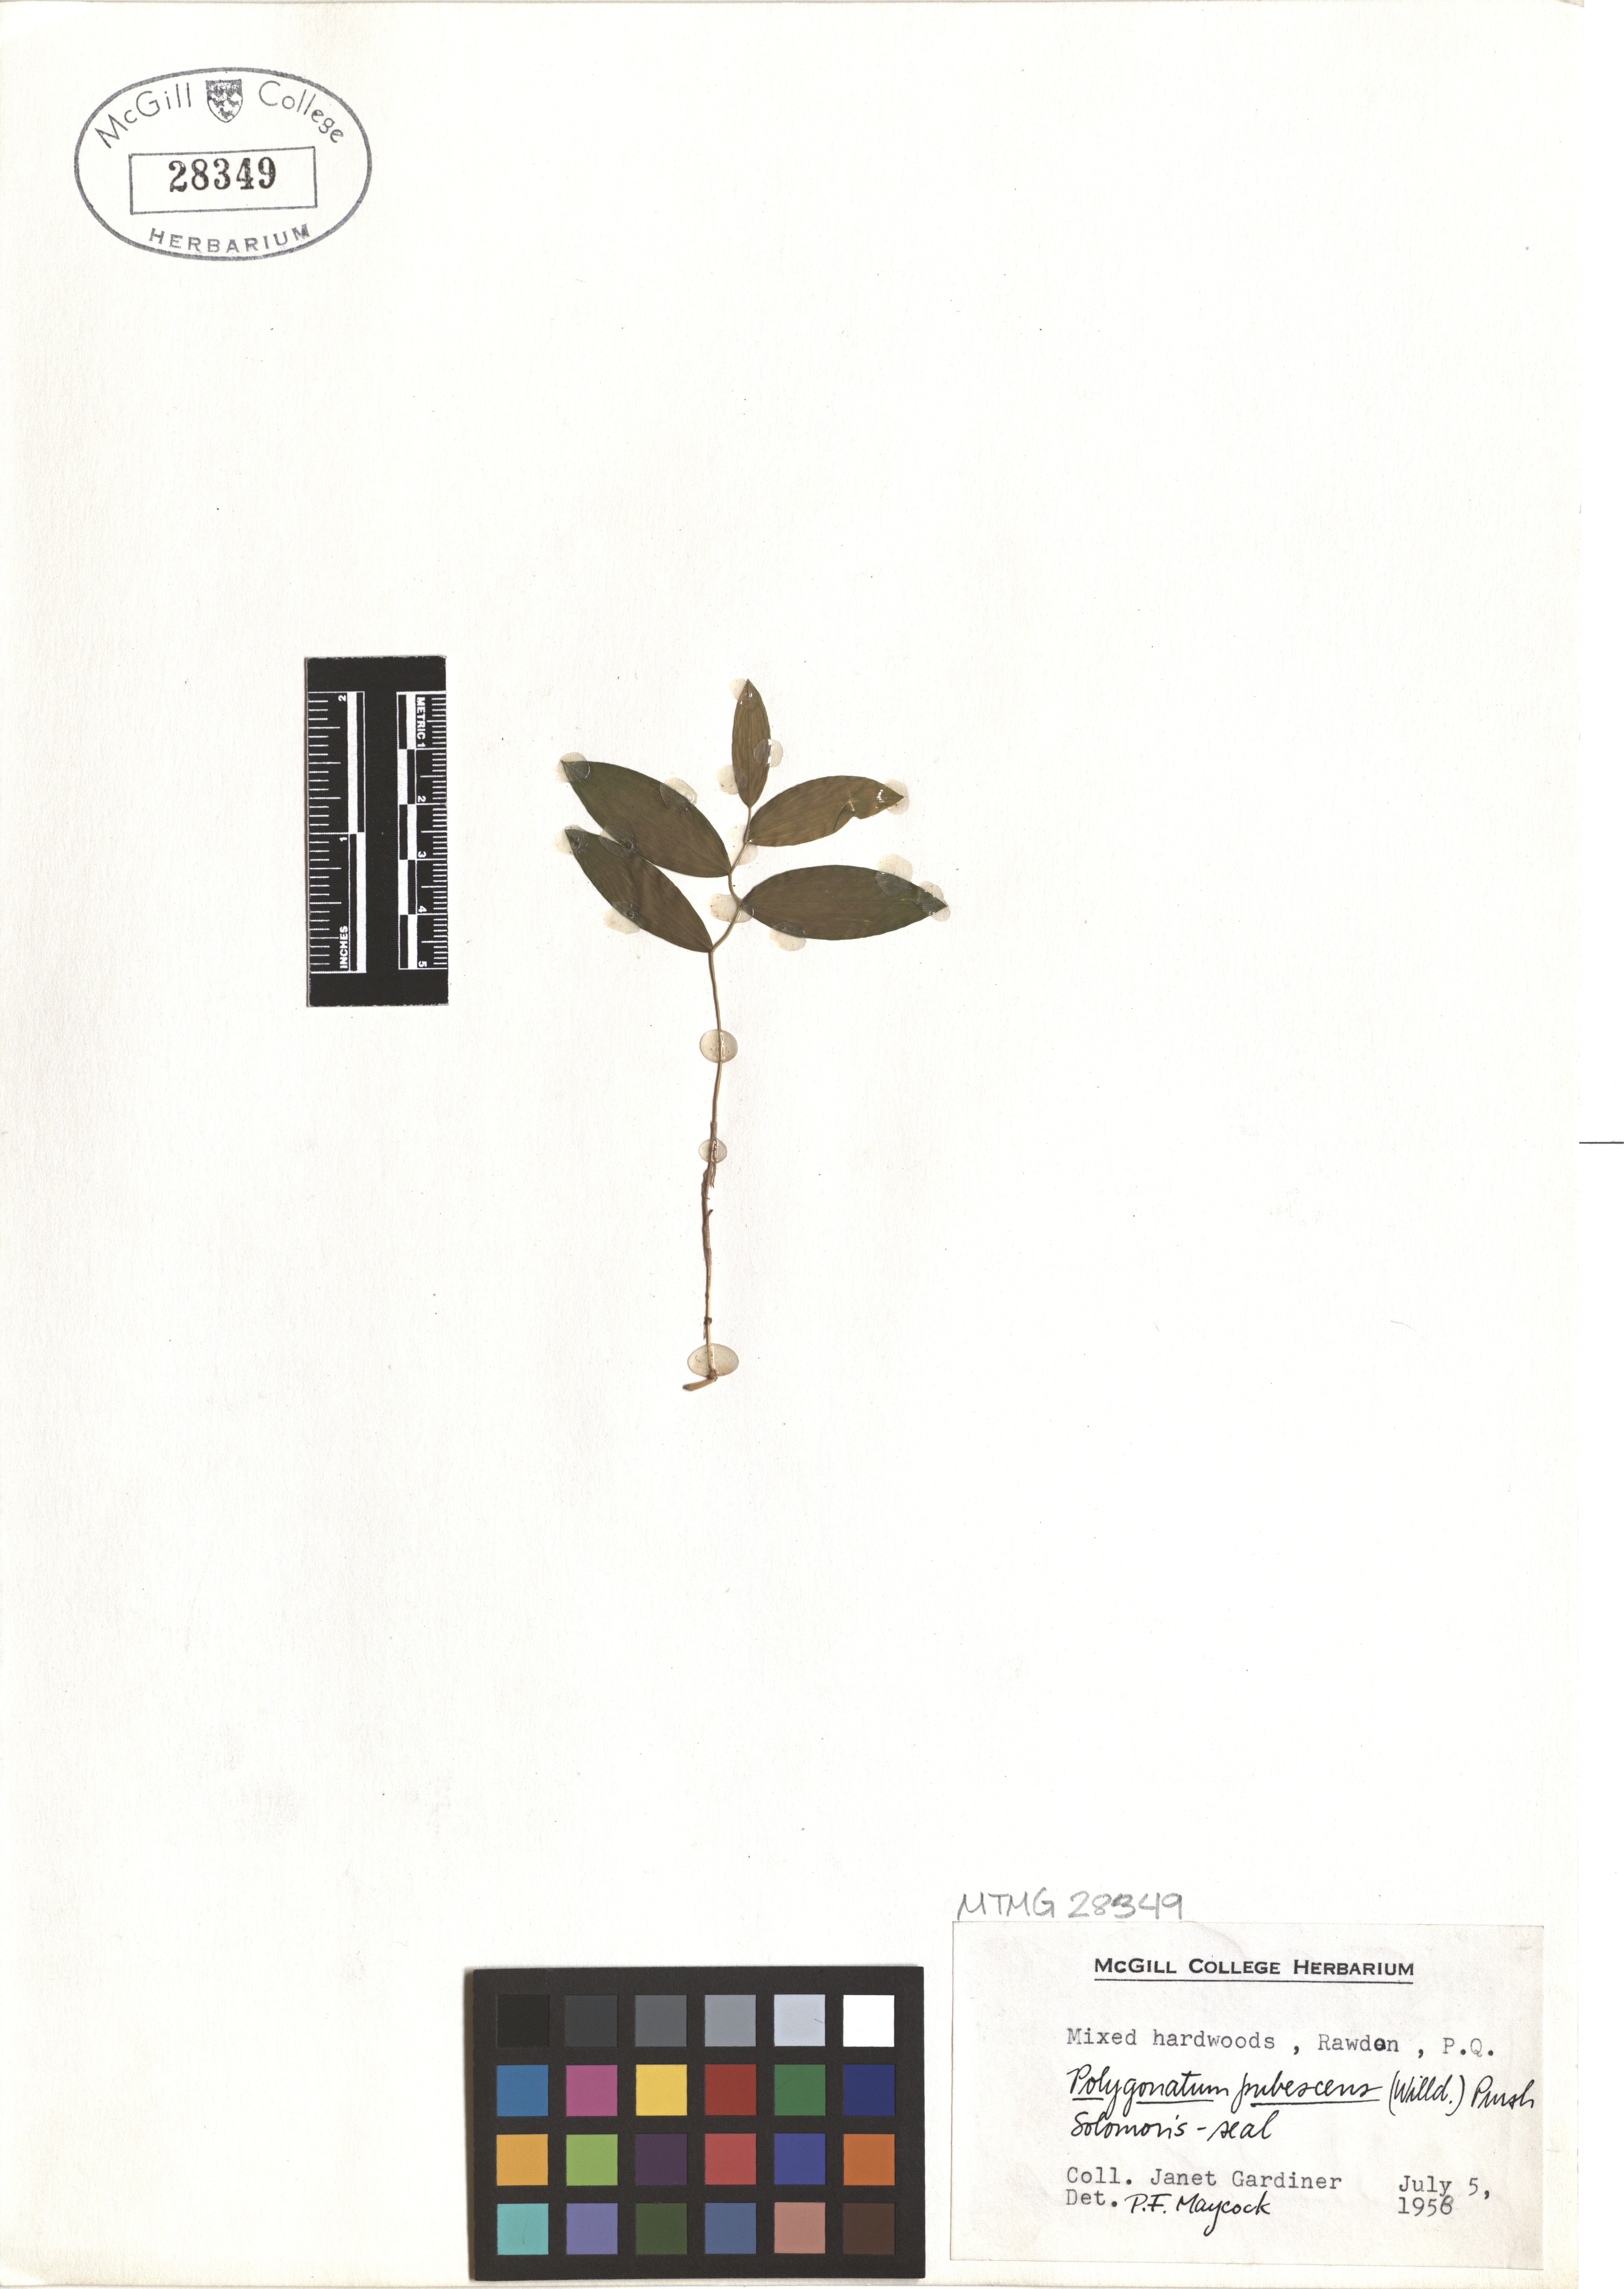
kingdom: Plantae
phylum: Tracheophyta
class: Liliopsida
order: Asparagales
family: Asparagaceae
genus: Polygonatum
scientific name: Polygonatum pubescens
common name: Downy solomon's seal
